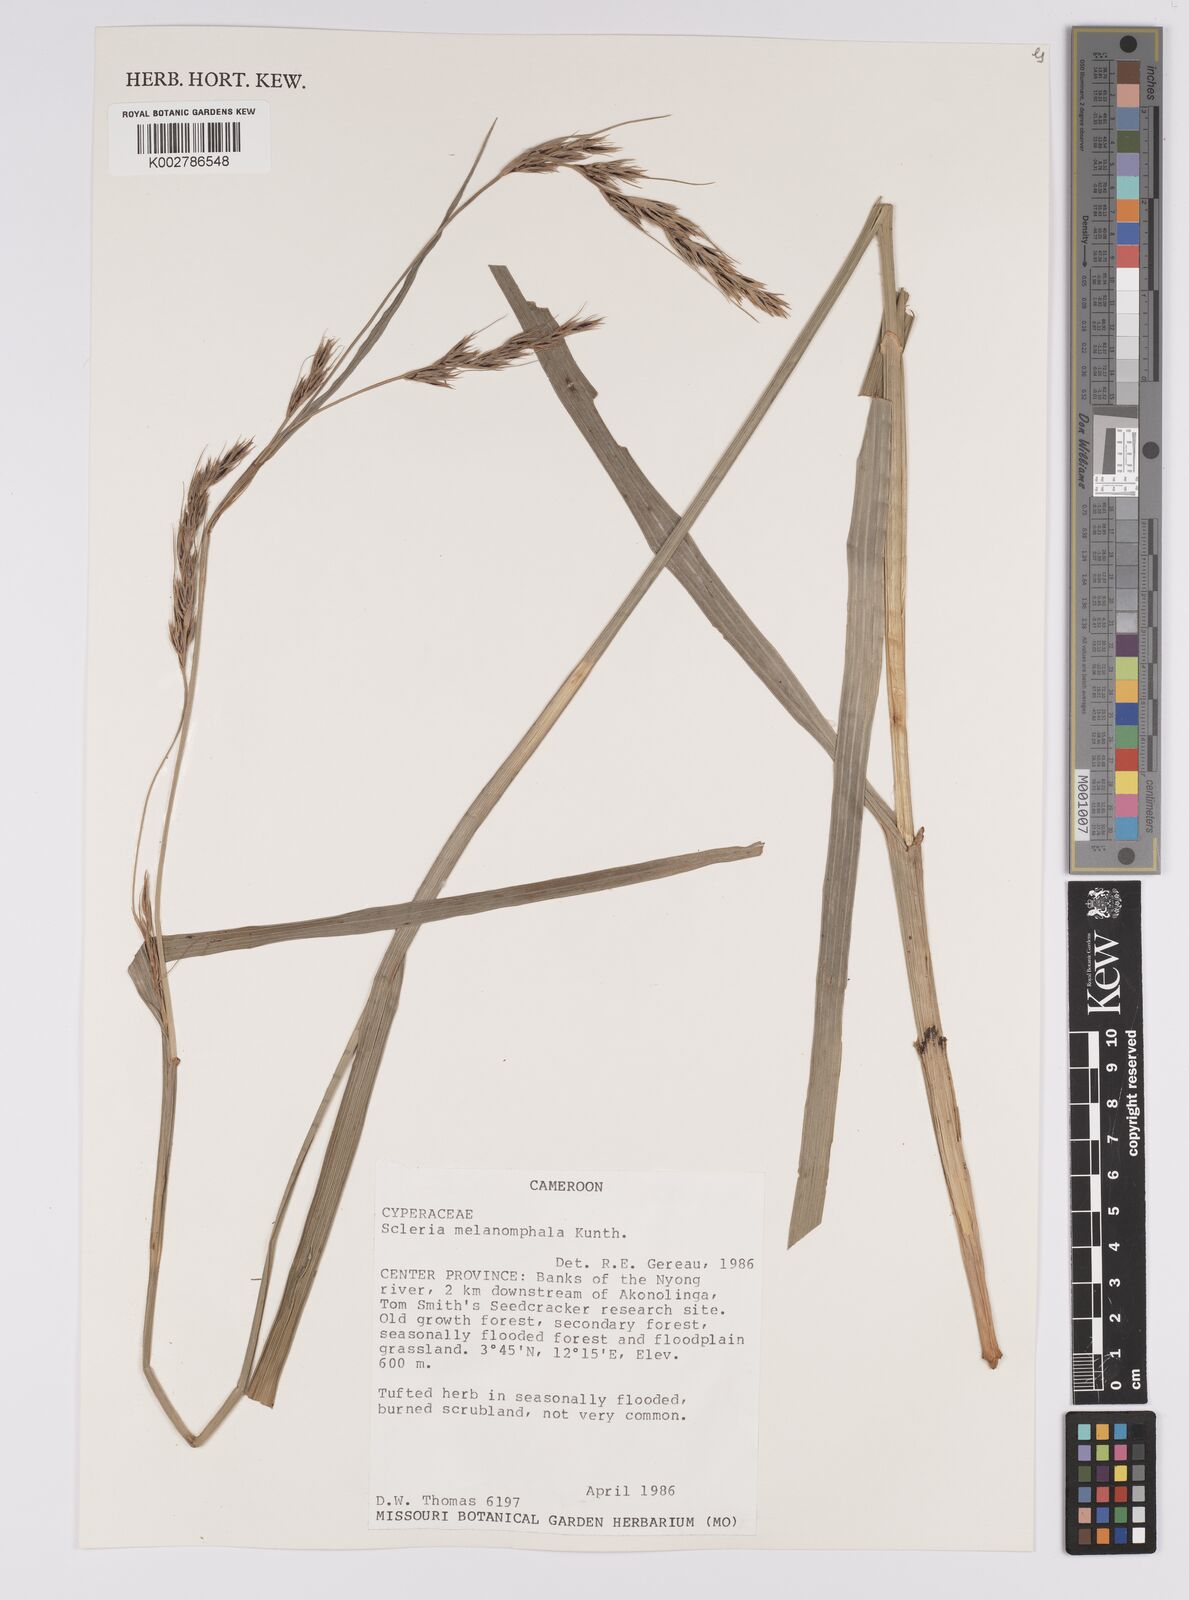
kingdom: Plantae
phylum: Tracheophyta
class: Liliopsida
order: Poales
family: Cyperaceae
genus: Scleria
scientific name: Scleria melanomphala
